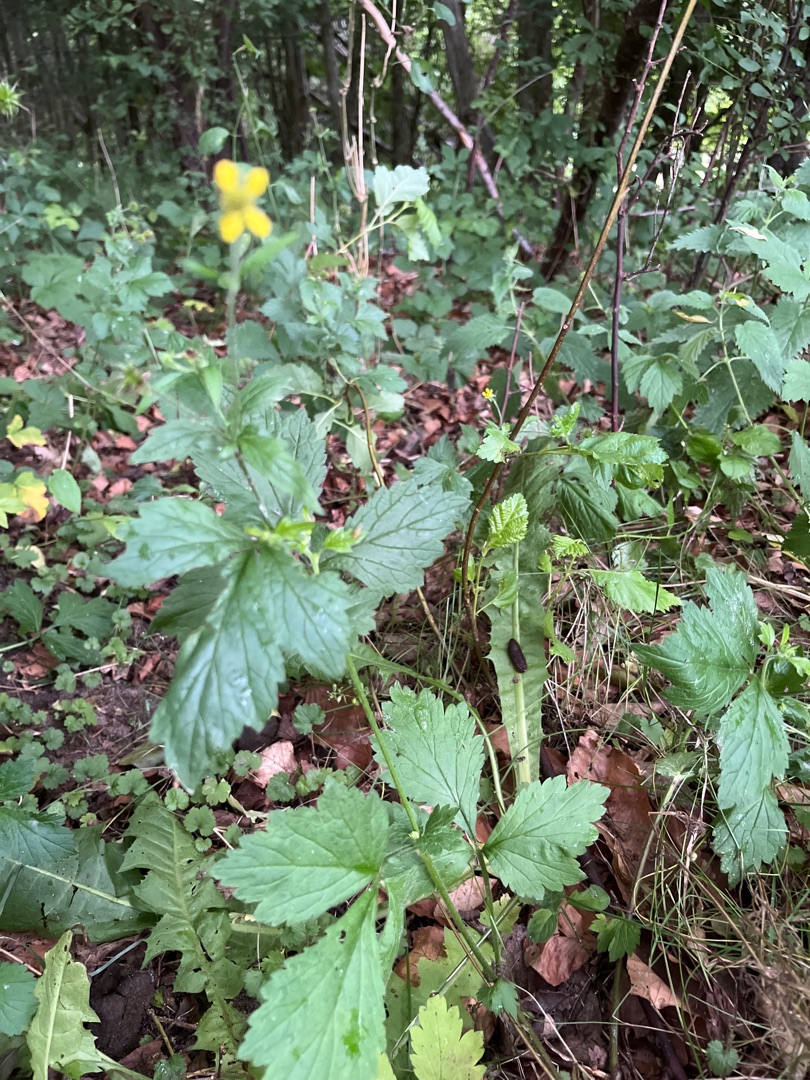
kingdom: Plantae
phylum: Tracheophyta
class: Magnoliopsida
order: Rosales
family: Rosaceae
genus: Geum
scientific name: Geum urbanum
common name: Feber-nellikerod
